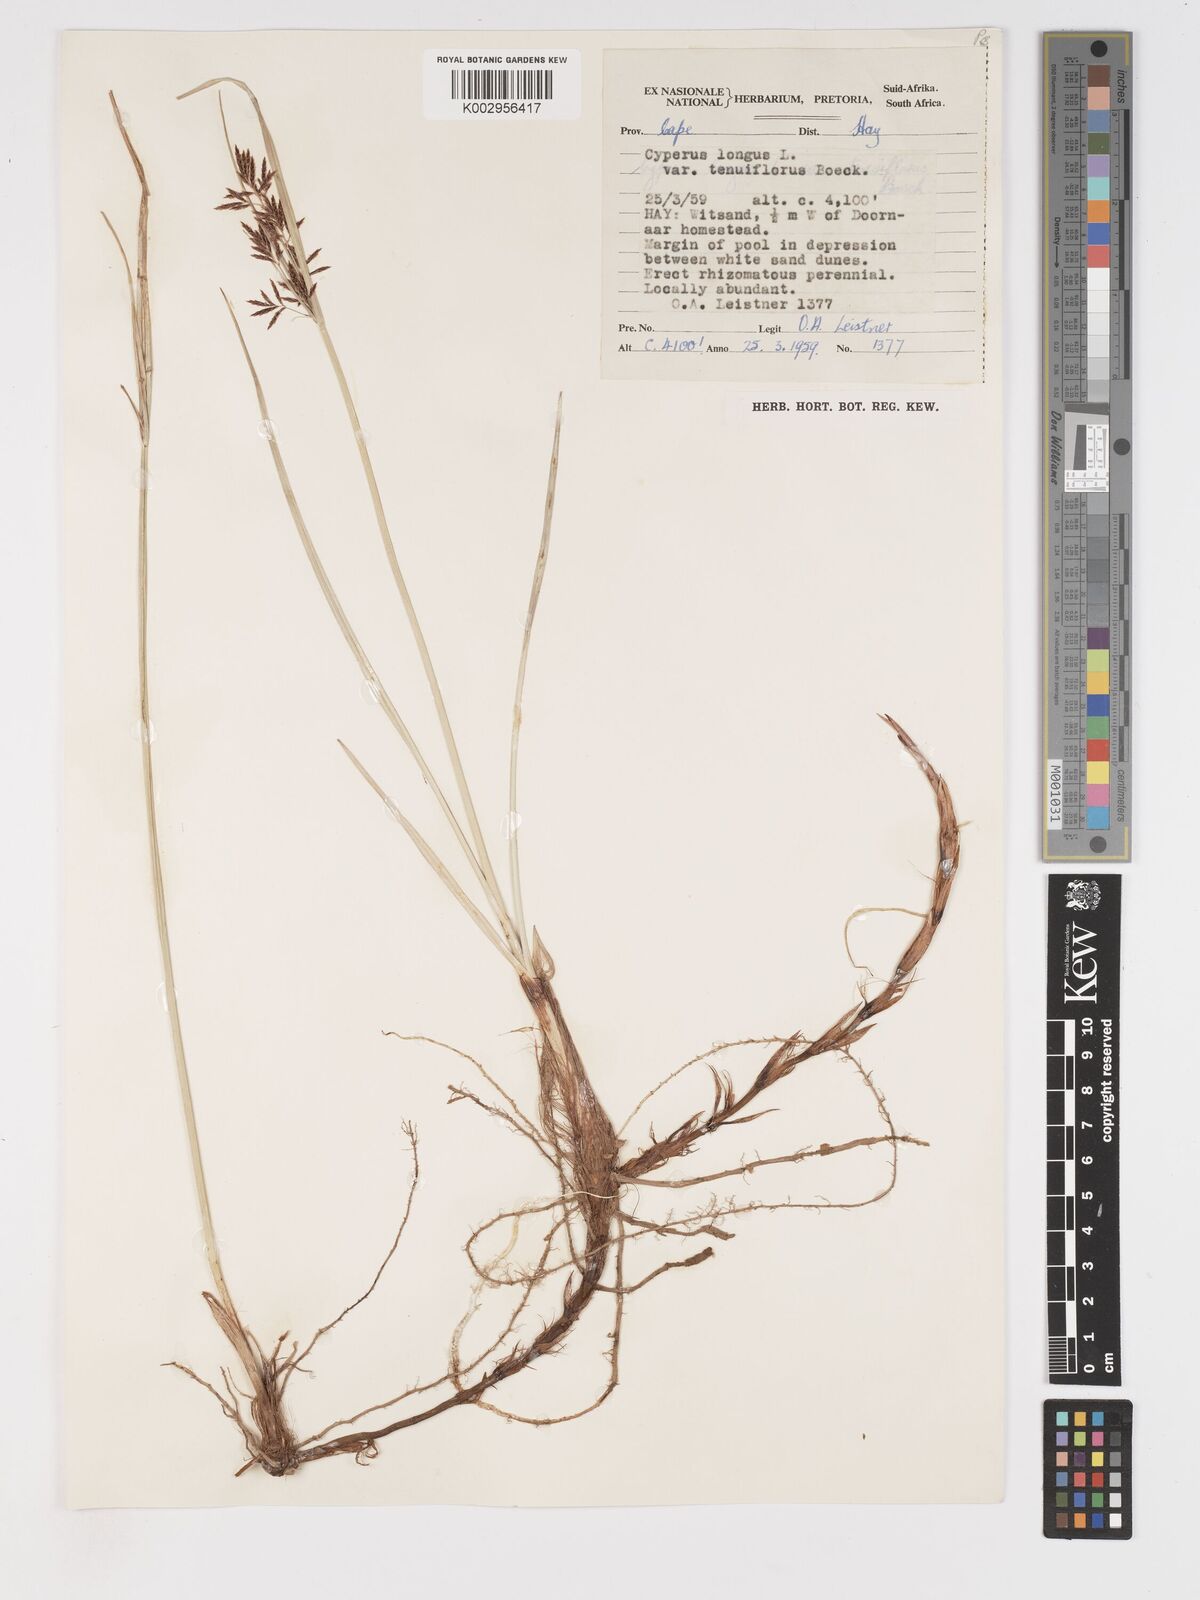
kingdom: Plantae
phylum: Tracheophyta
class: Liliopsida
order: Poales
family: Cyperaceae
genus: Cyperus
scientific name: Cyperus longus
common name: Galingale
